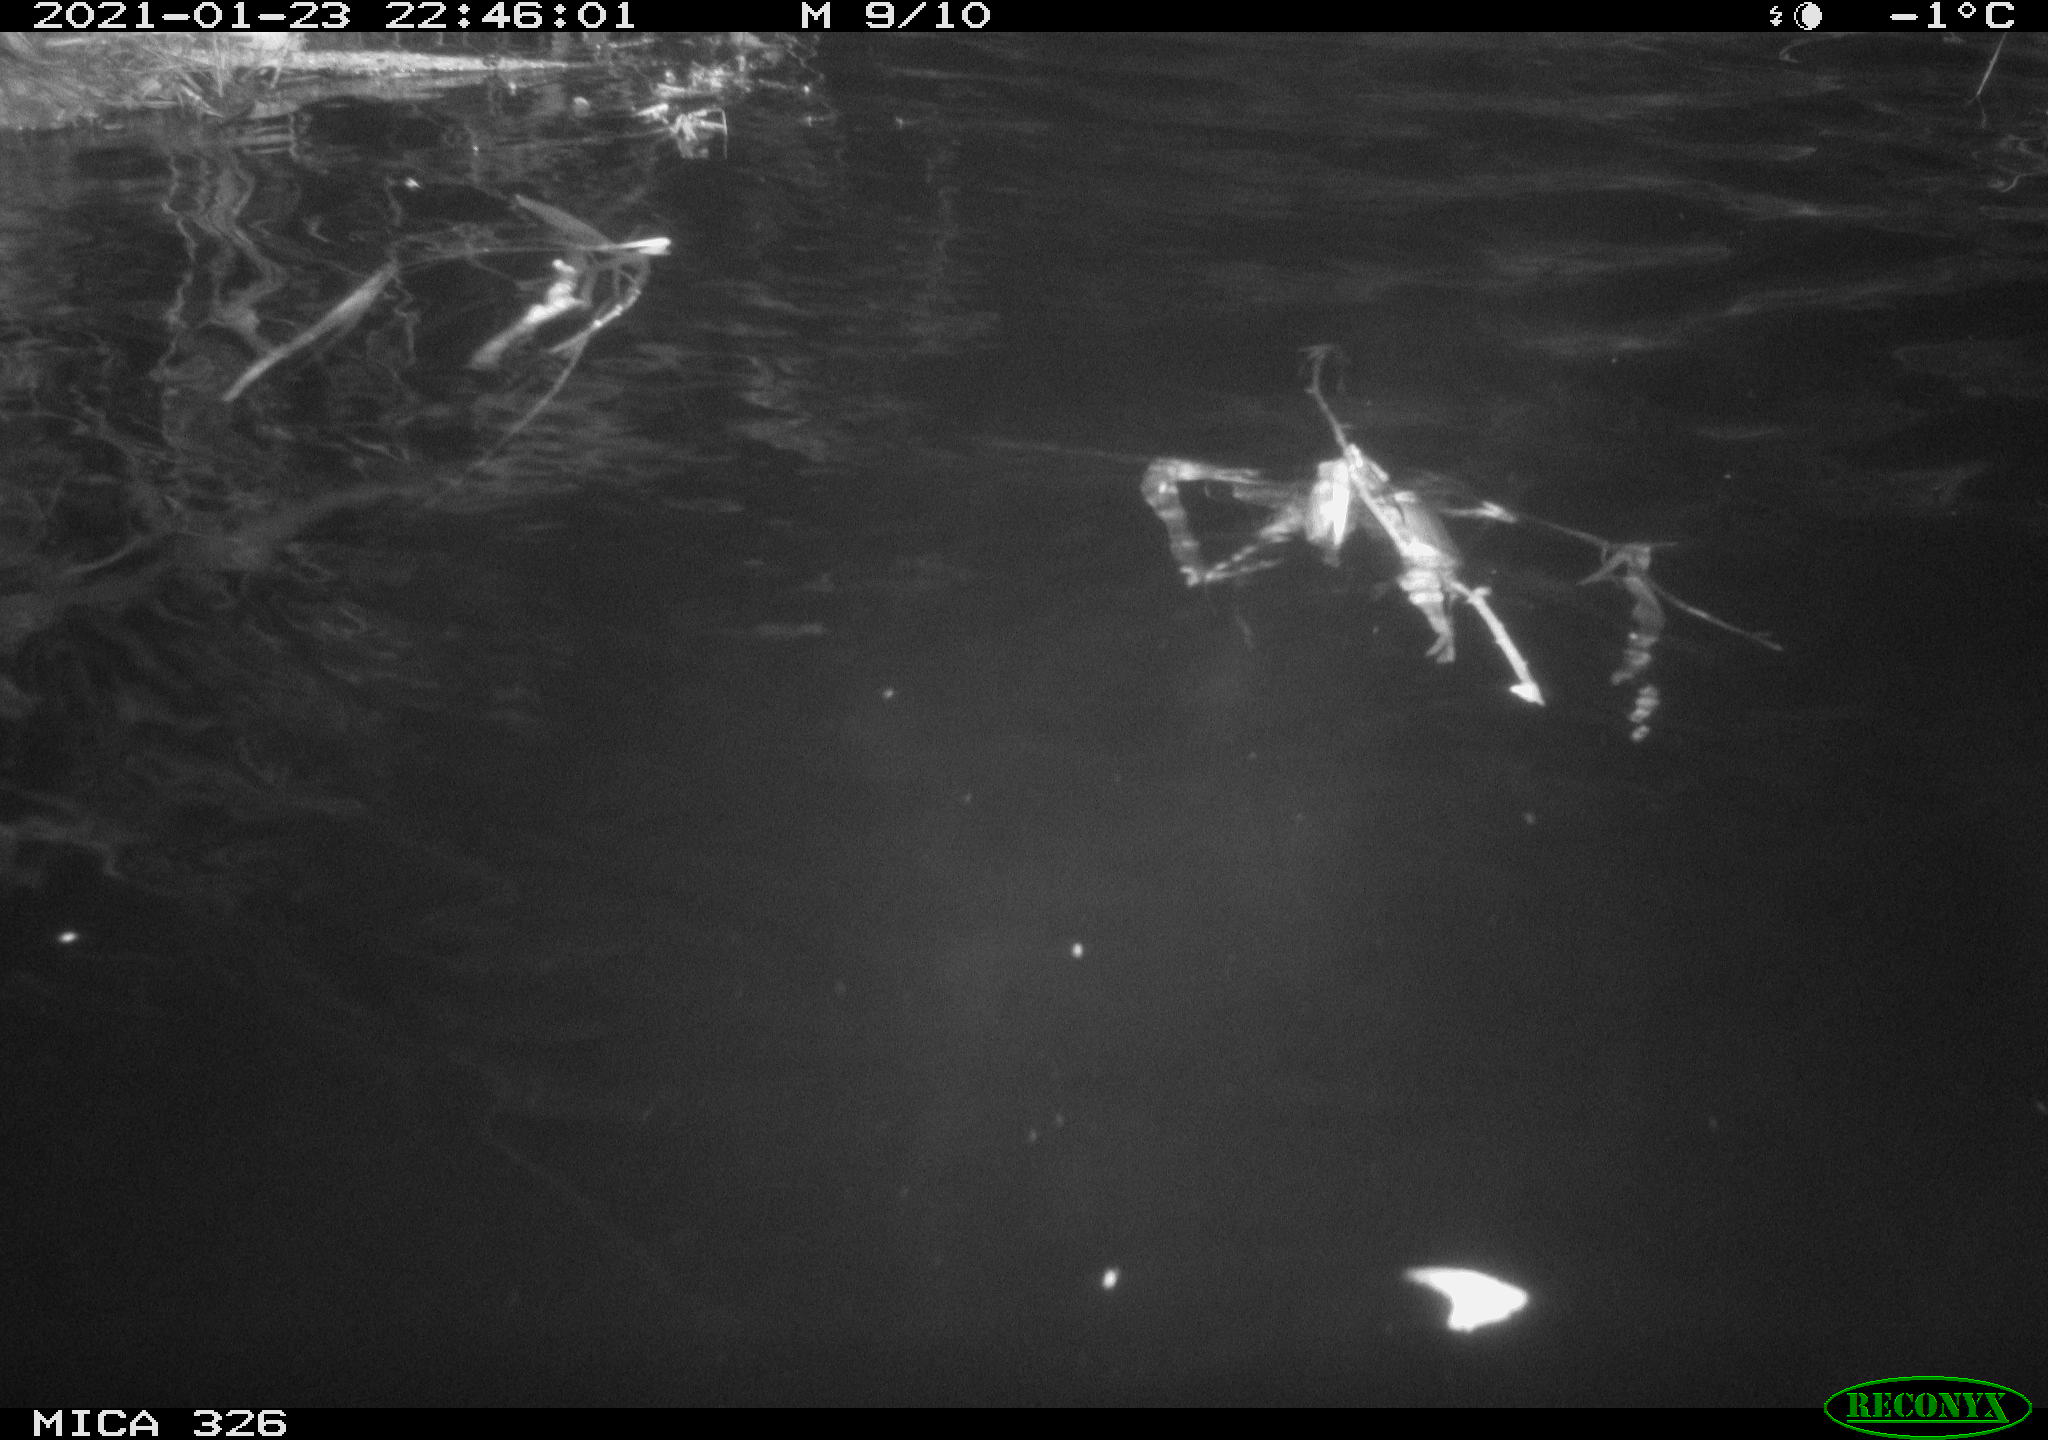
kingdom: Animalia
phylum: Chordata
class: Mammalia
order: Rodentia
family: Cricetidae
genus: Ondatra
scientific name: Ondatra zibethicus
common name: Muskrat
